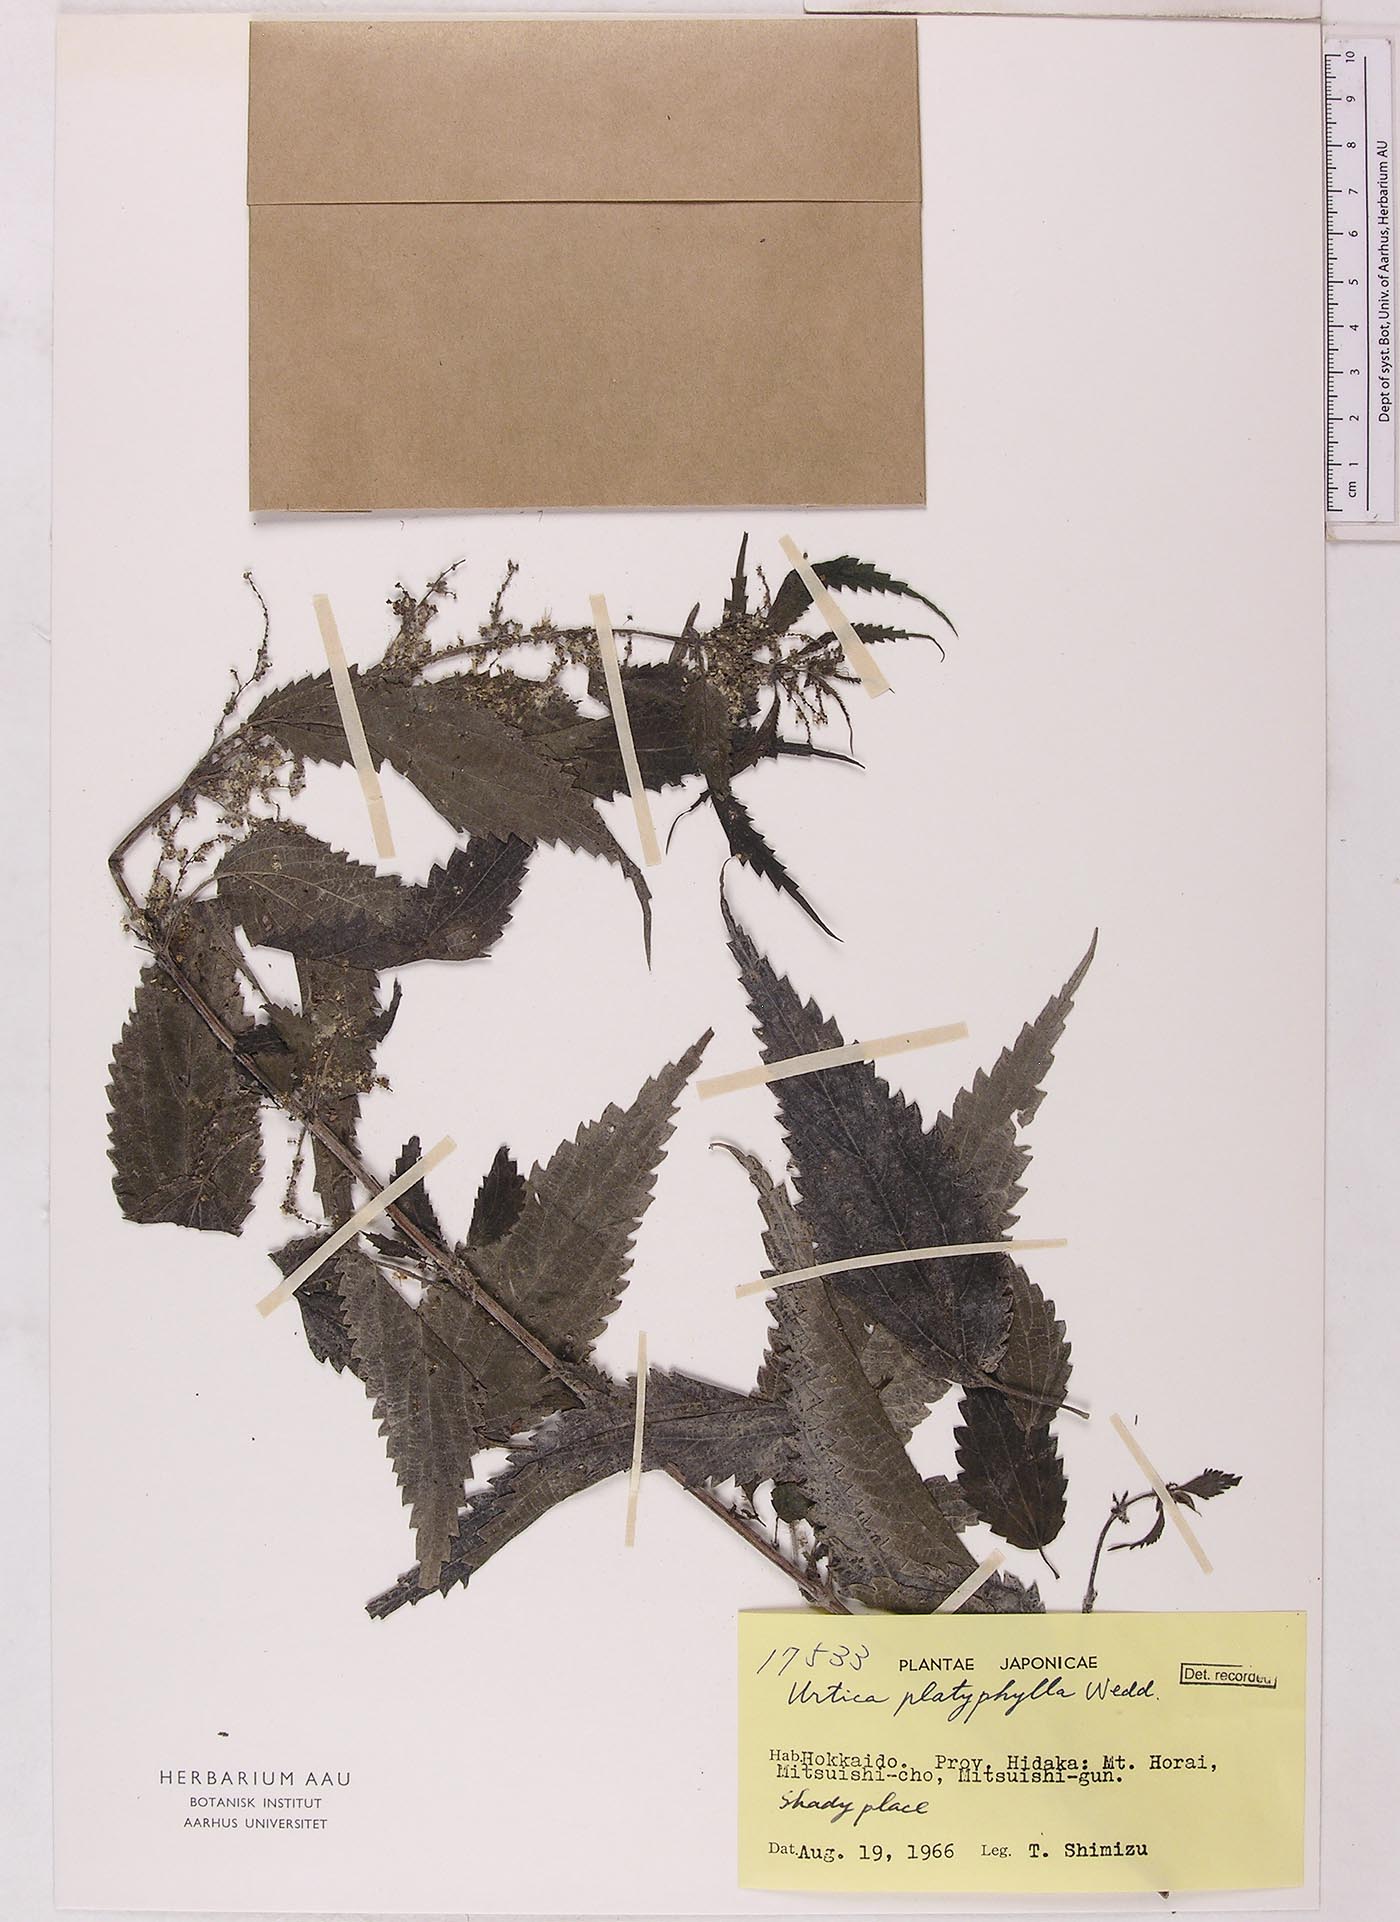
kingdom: Plantae
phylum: Tracheophyta
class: Magnoliopsida
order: Rosales
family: Urticaceae
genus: Urtica
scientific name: Urtica platyphylla
